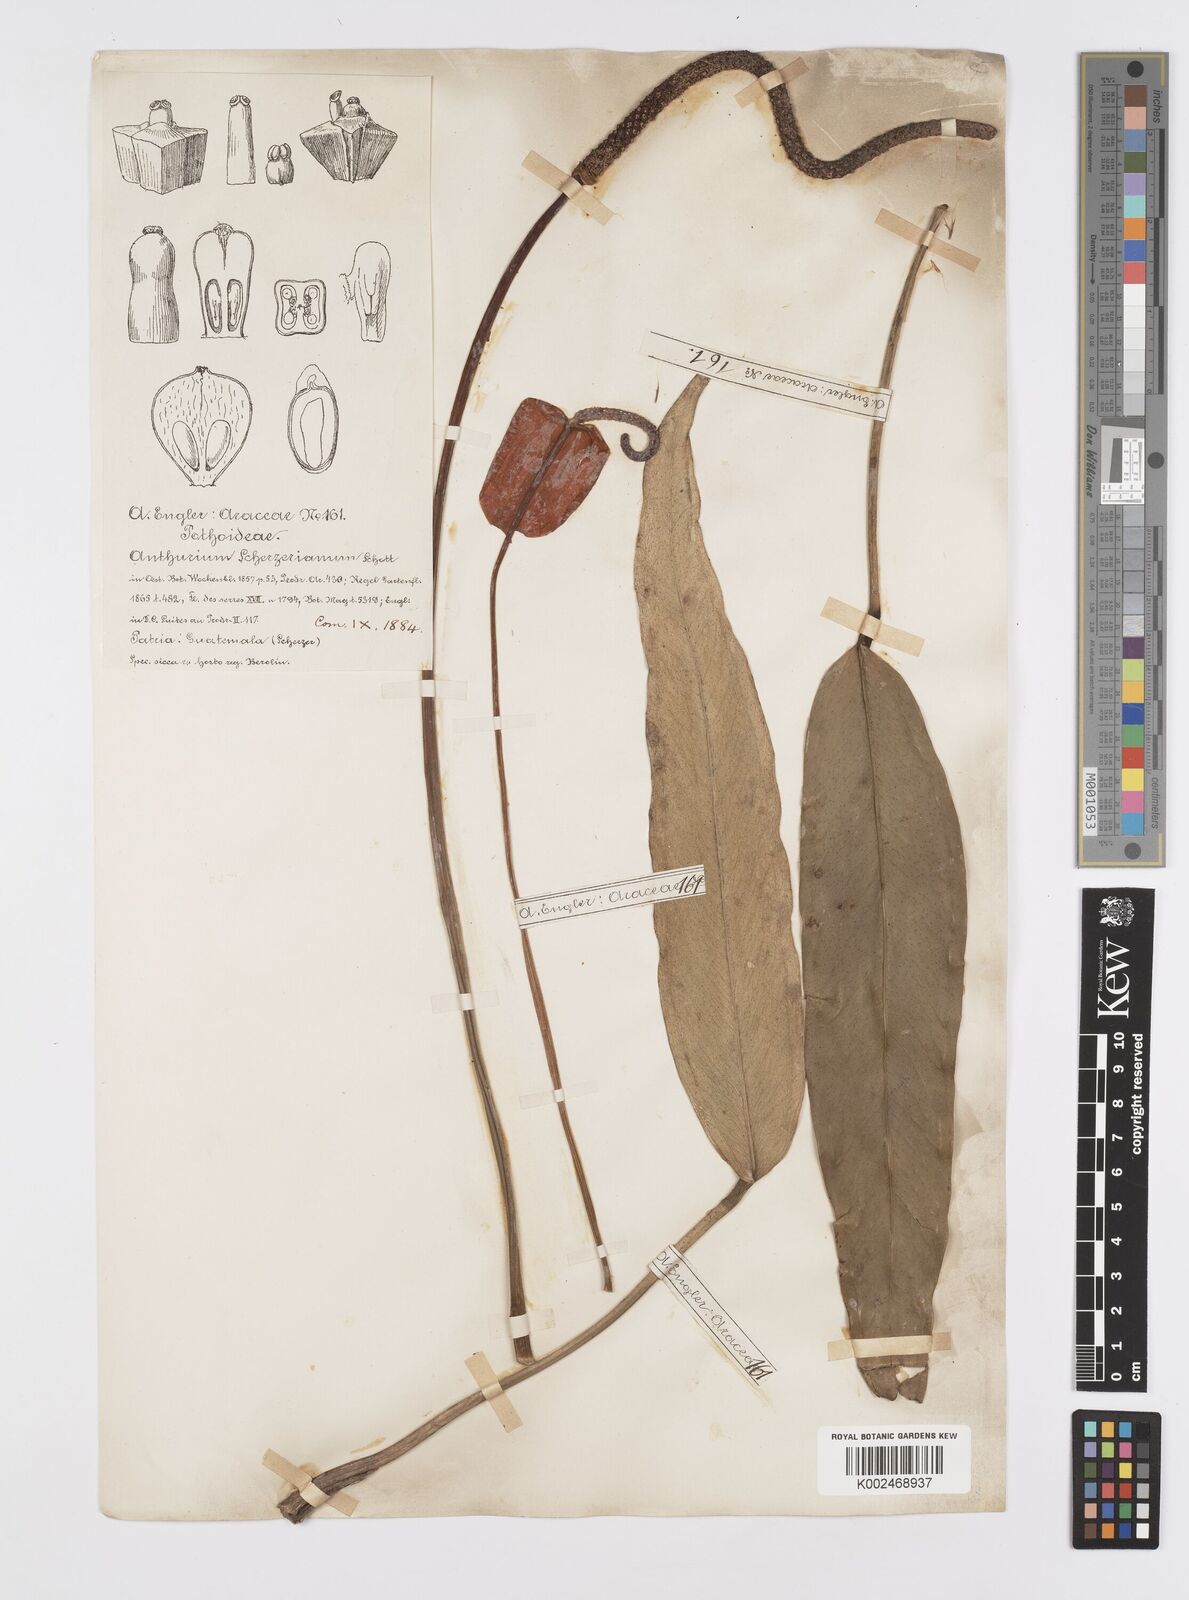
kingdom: Plantae
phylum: Tracheophyta
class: Liliopsida
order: Alismatales
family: Araceae
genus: Anthurium
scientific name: Anthurium scherzerianum
